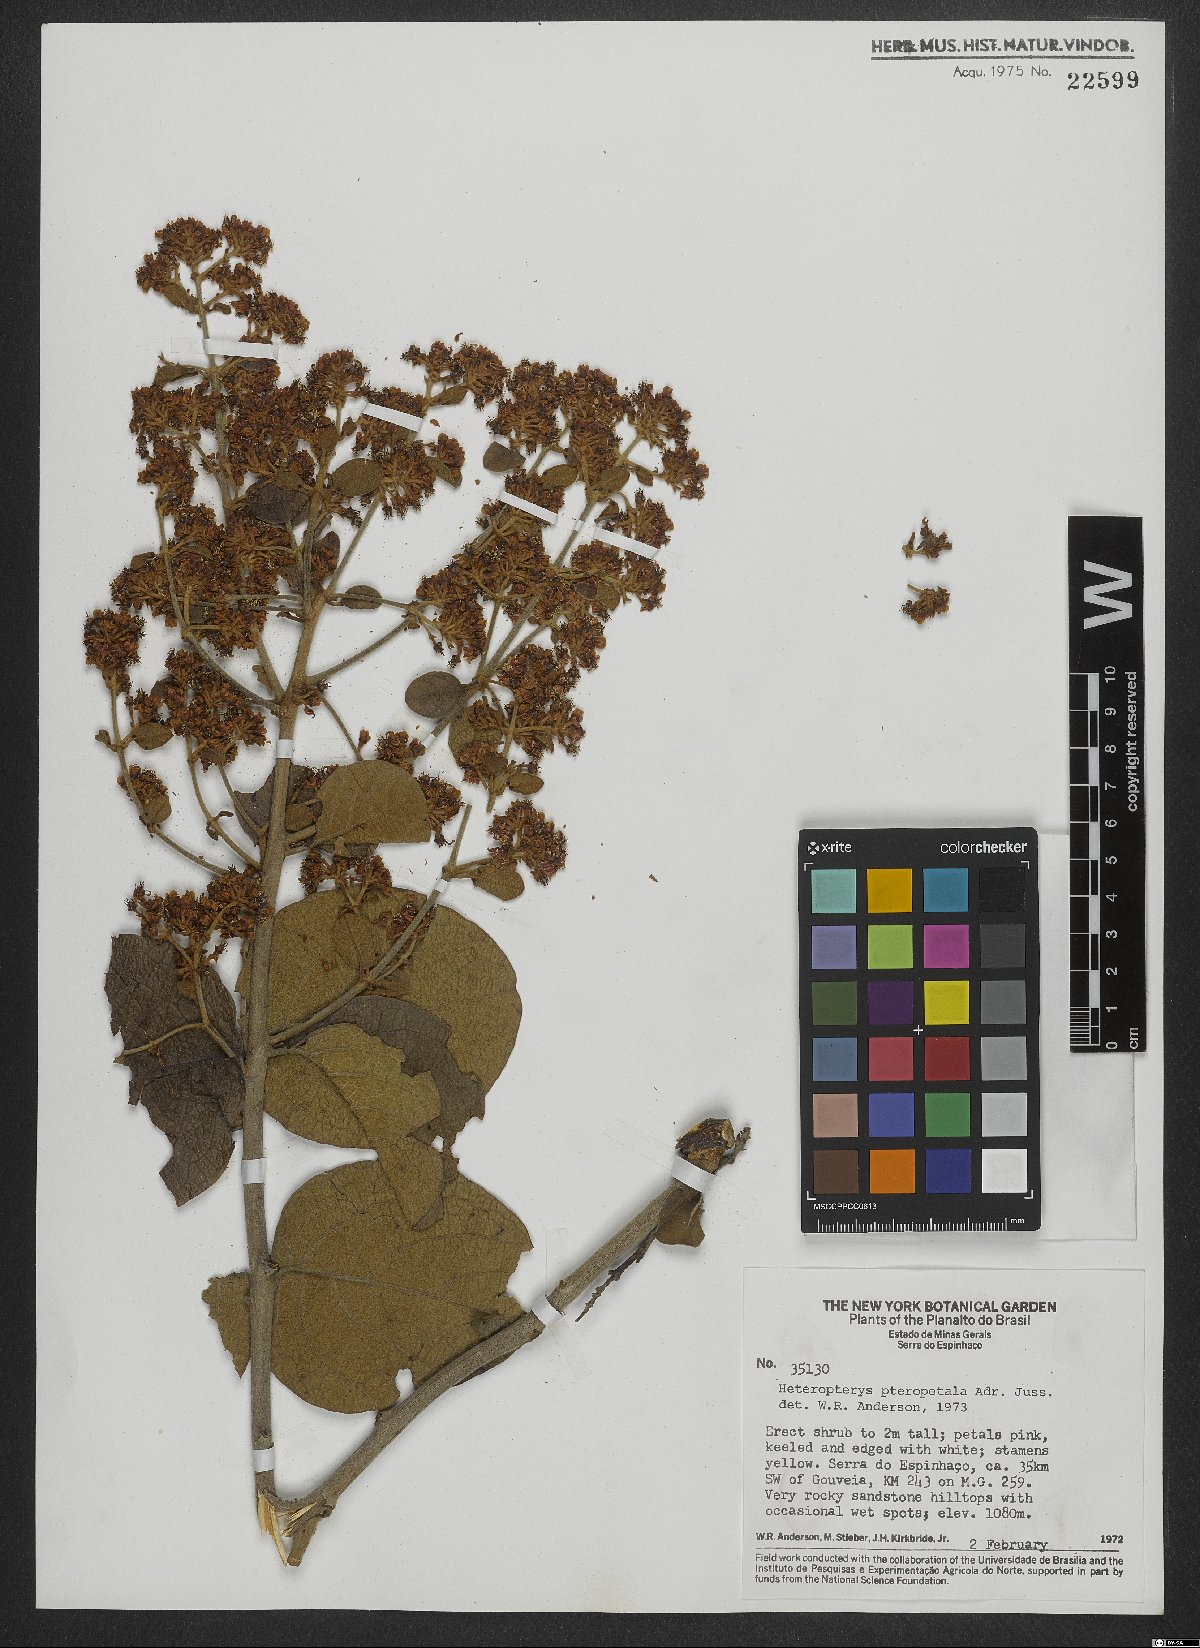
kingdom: Plantae
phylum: Tracheophyta
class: Magnoliopsida
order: Malpighiales
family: Malpighiaceae
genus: Heteropterys
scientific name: Heteropterys pteropetala
